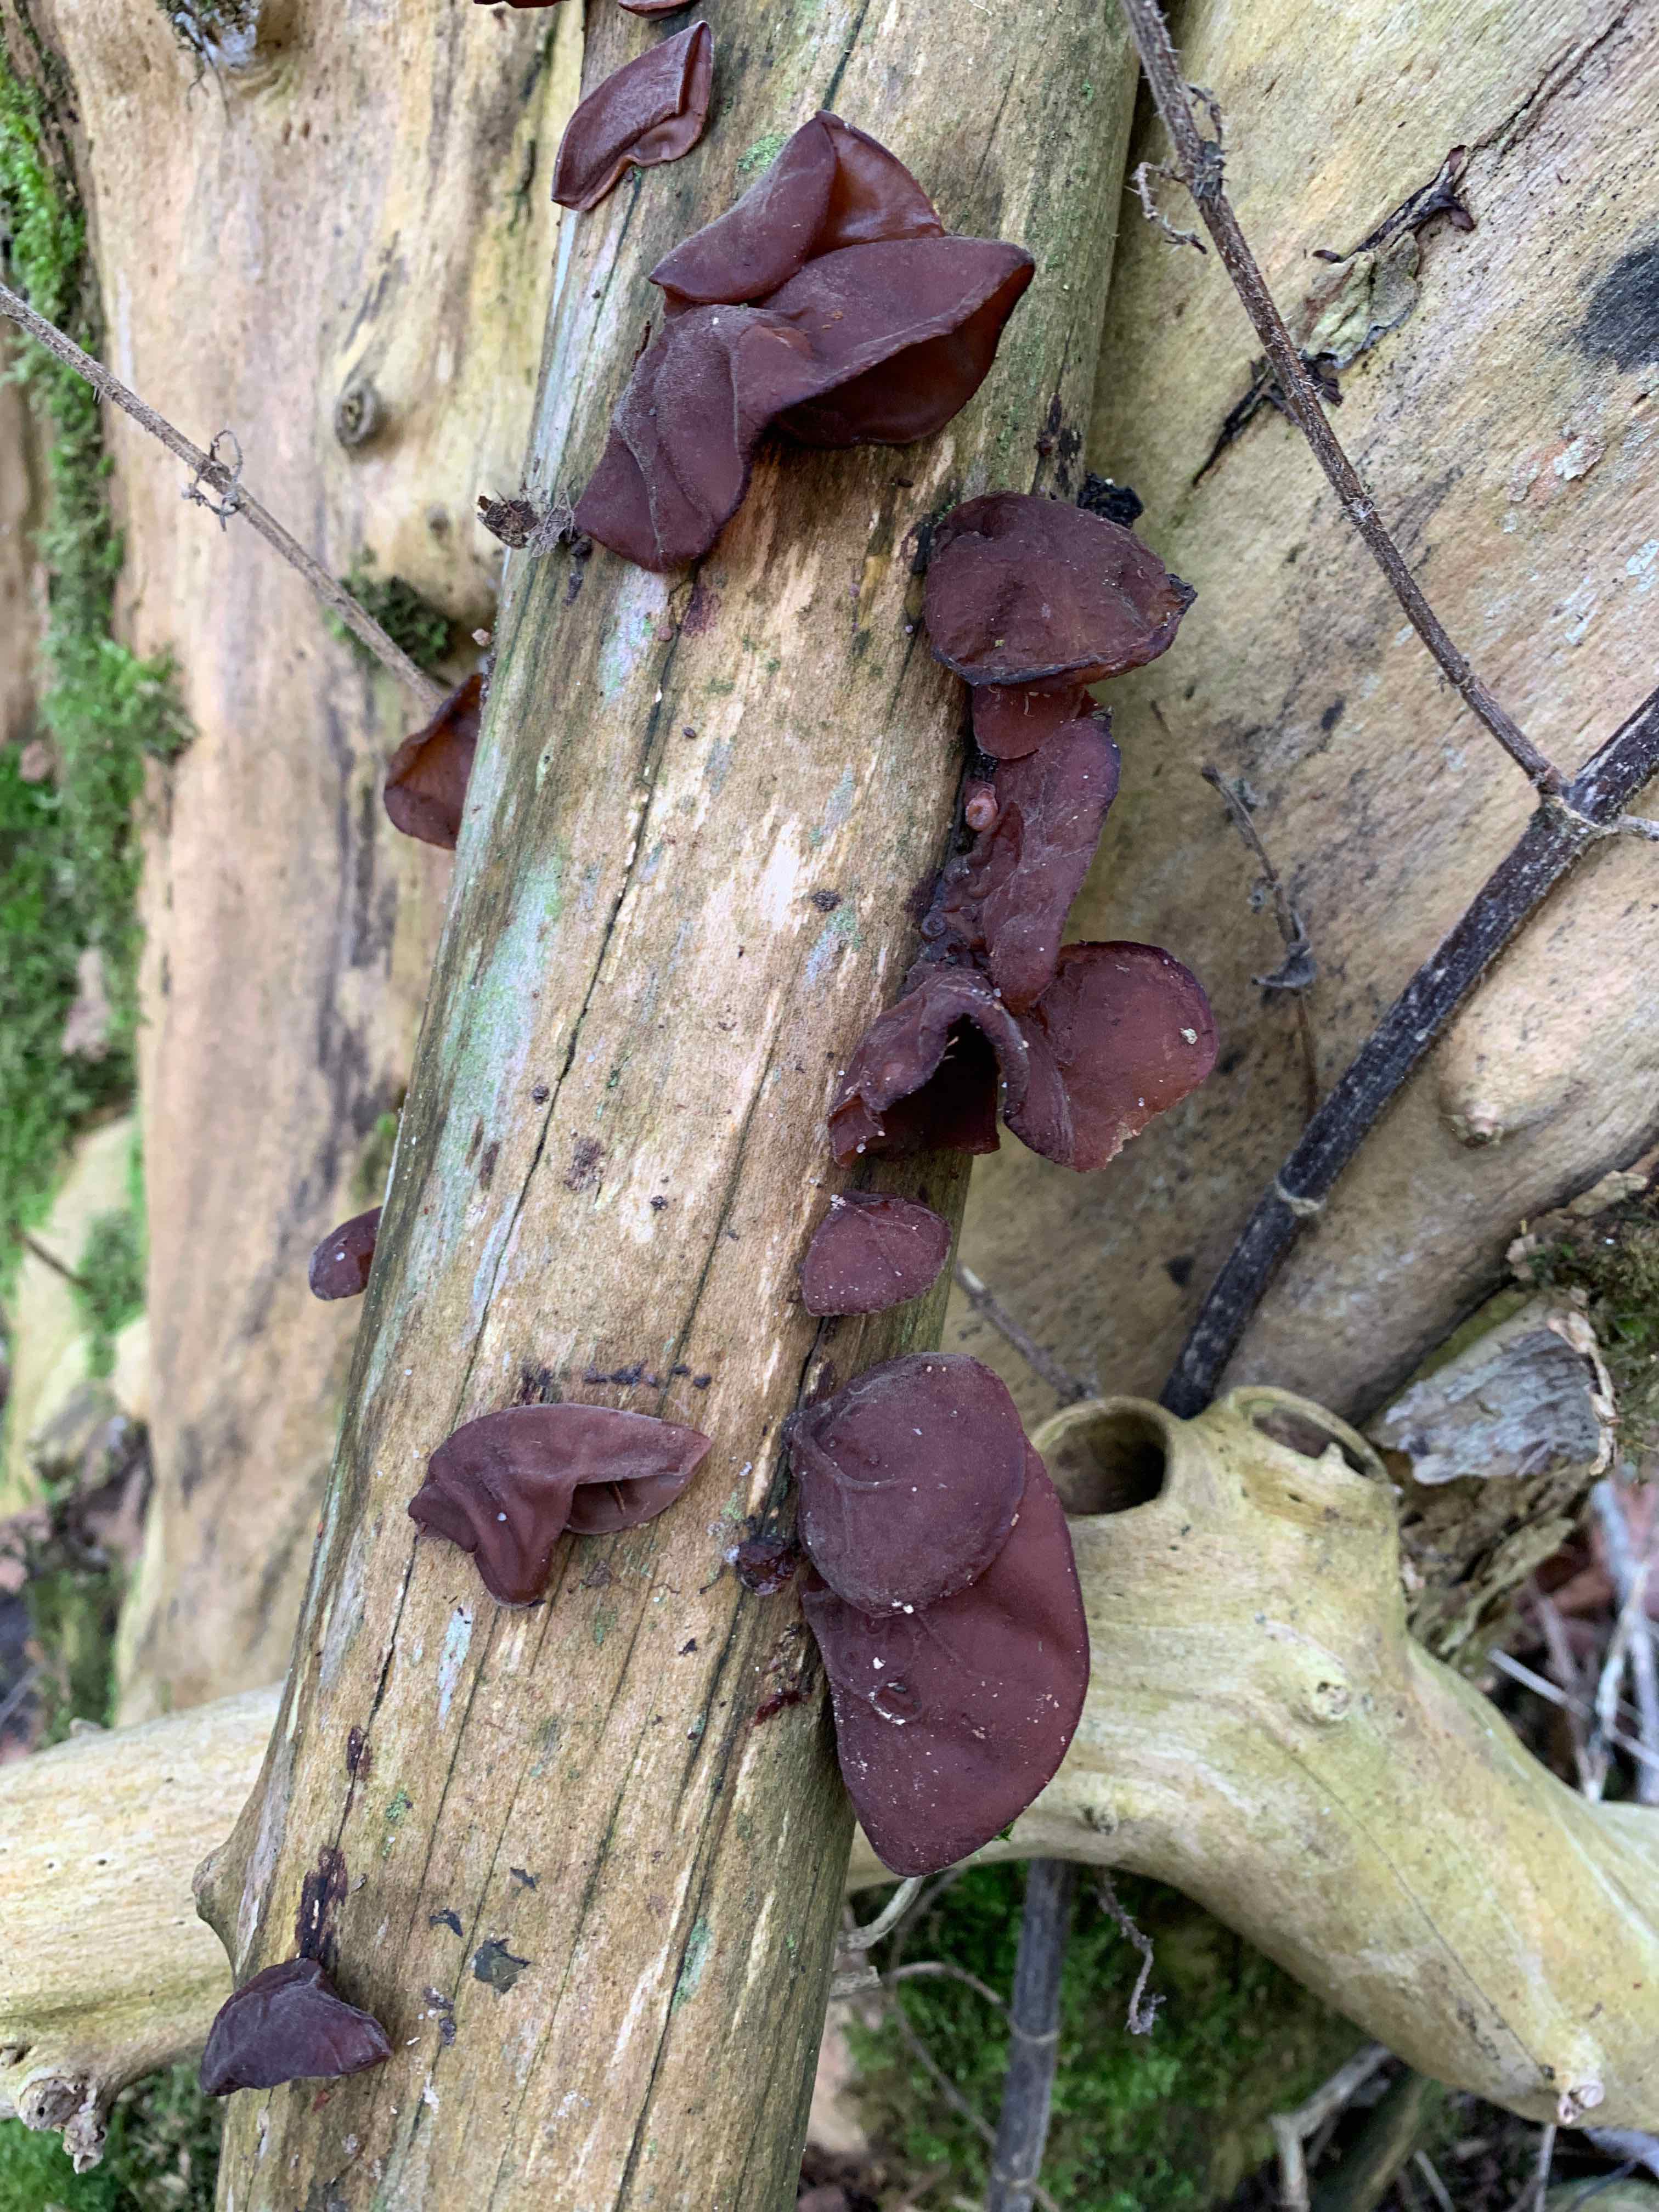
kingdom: Fungi
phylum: Basidiomycota
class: Agaricomycetes
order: Auriculariales
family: Auriculariaceae
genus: Auricularia
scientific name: Auricularia auricula-judae
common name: almindelig judasøre
